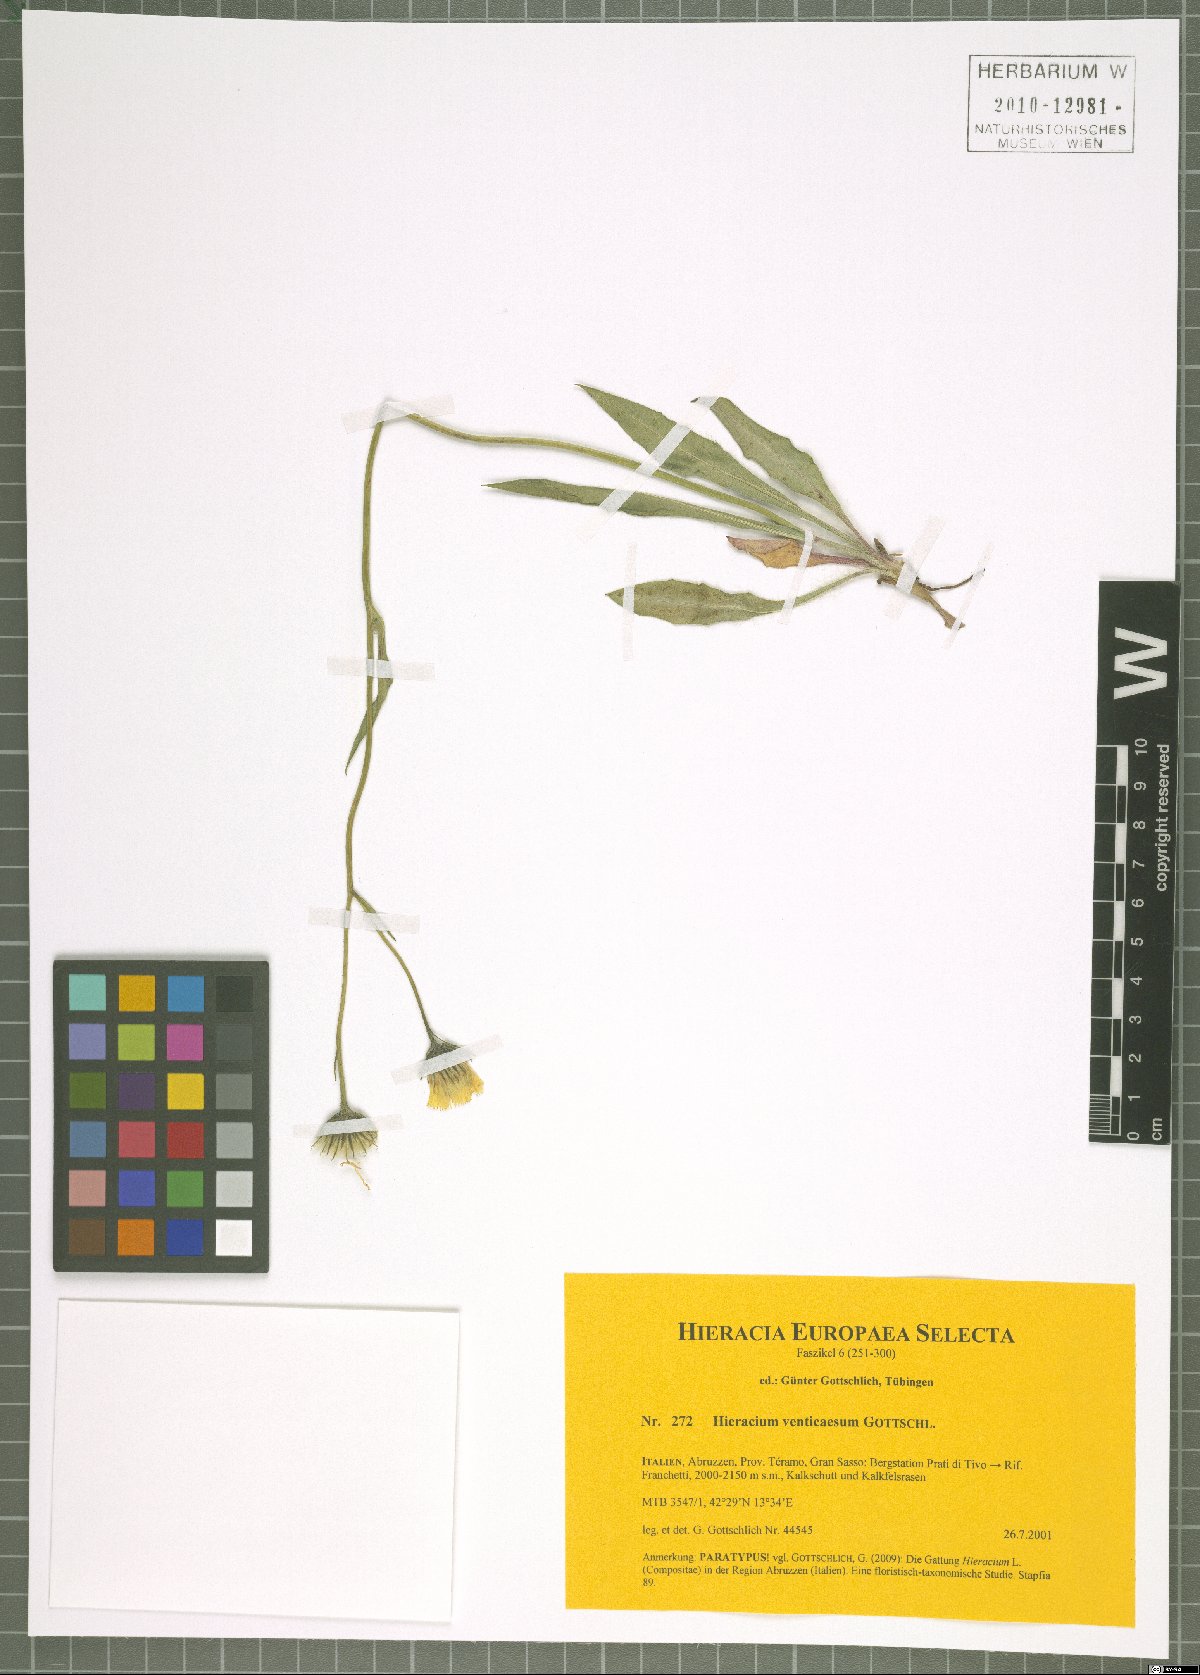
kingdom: Plantae
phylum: Tracheophyta
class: Magnoliopsida
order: Asterales
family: Asteraceae
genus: Hieracium
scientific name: Hieracium venticaesum
